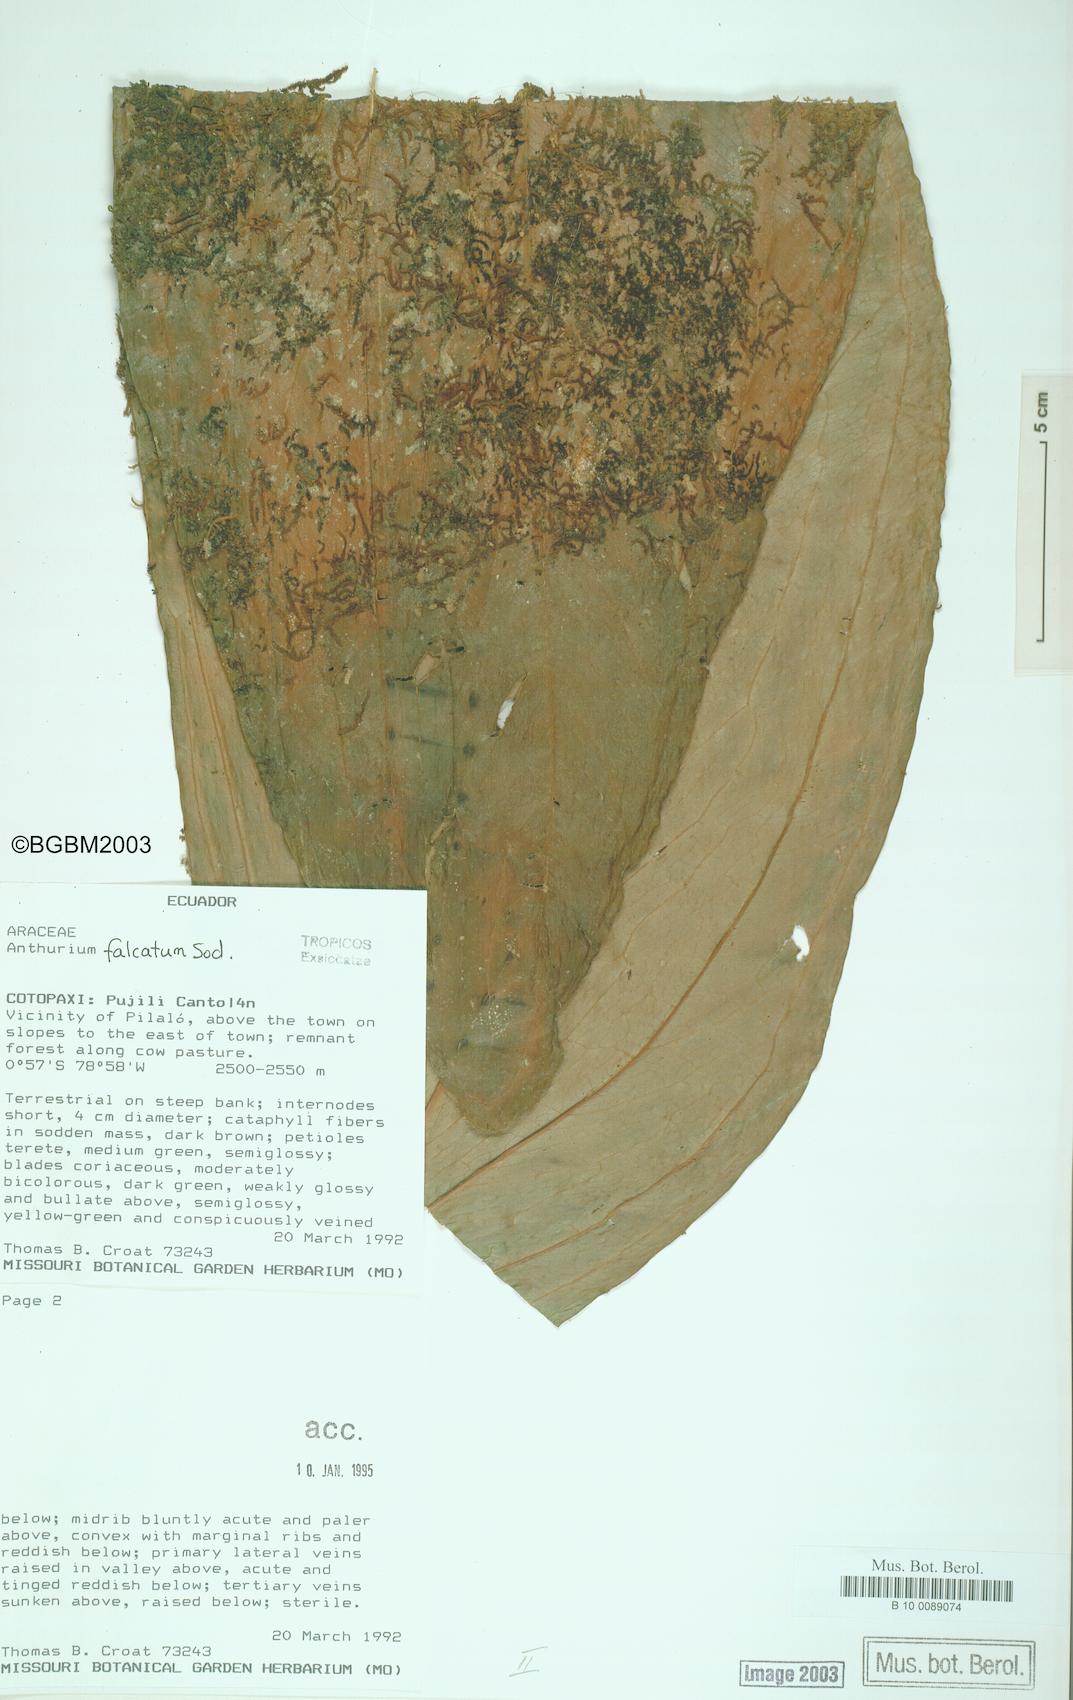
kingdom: Plantae
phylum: Tracheophyta
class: Liliopsida
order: Alismatales
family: Araceae
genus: Anthurium
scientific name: Anthurium rimbachii
